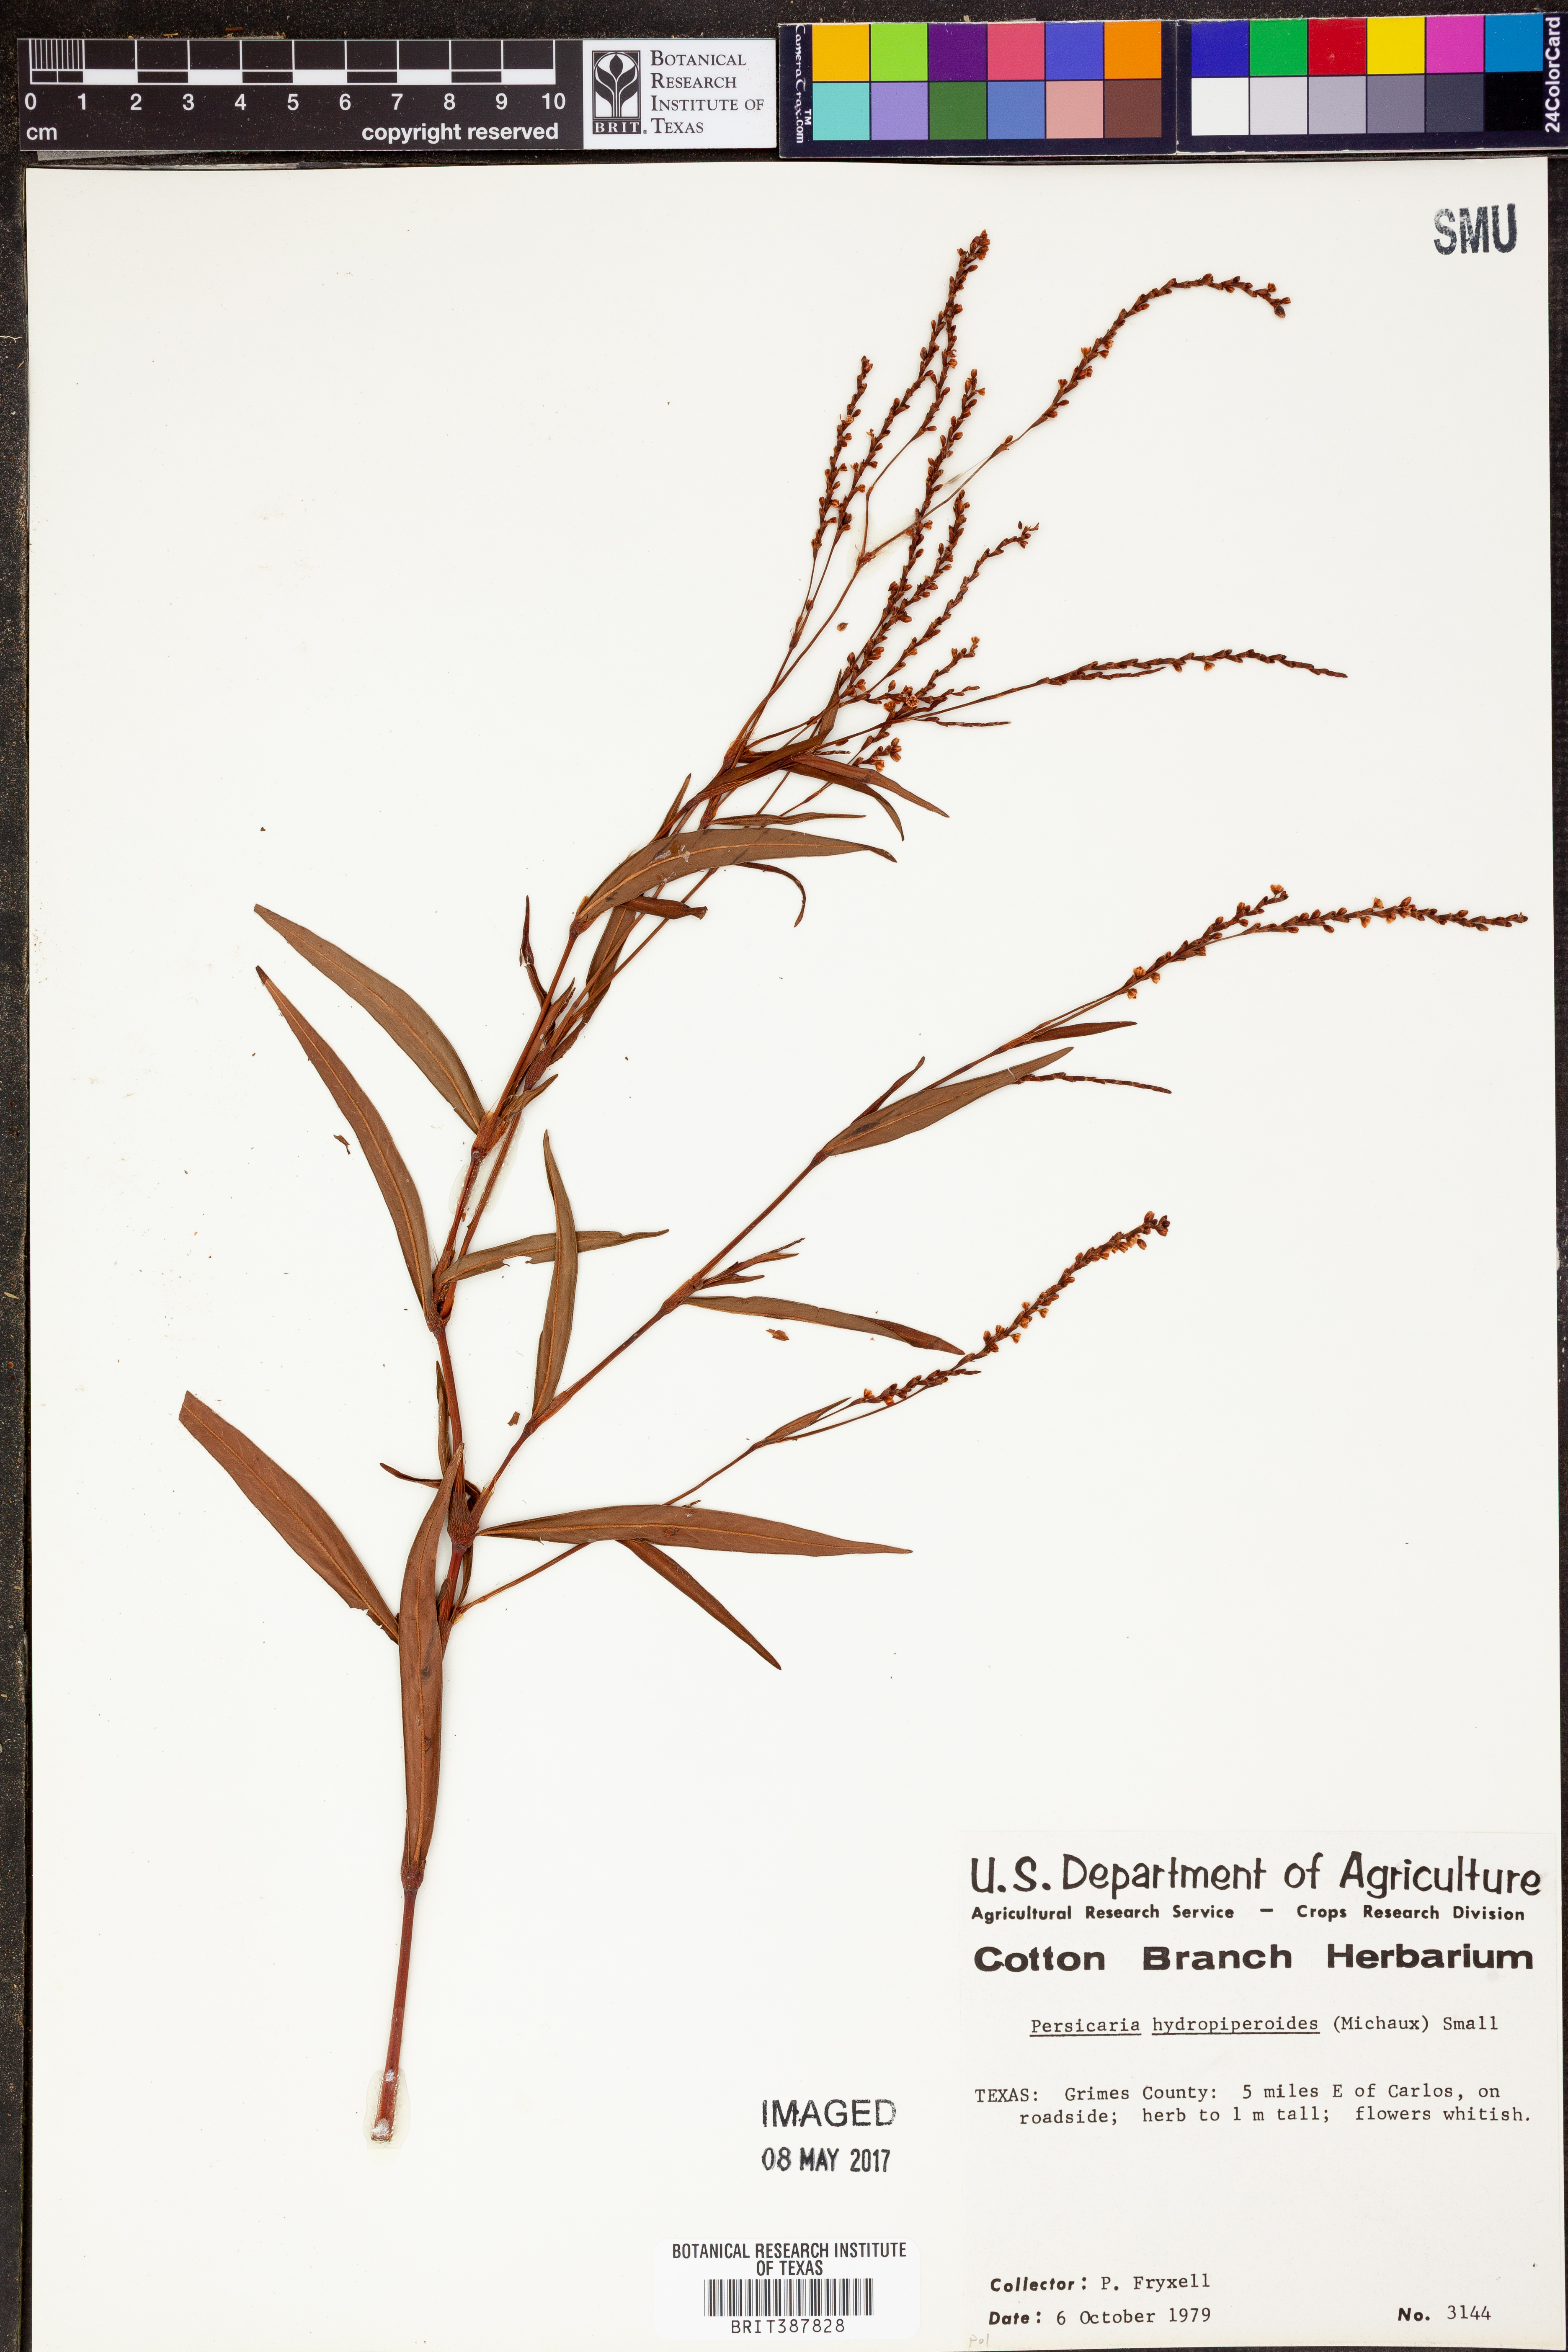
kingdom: Plantae
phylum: Tracheophyta
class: Magnoliopsida
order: Caryophyllales
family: Polygonaceae
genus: Persicaria
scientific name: Persicaria hydropiperoides
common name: Swamp smartweed
